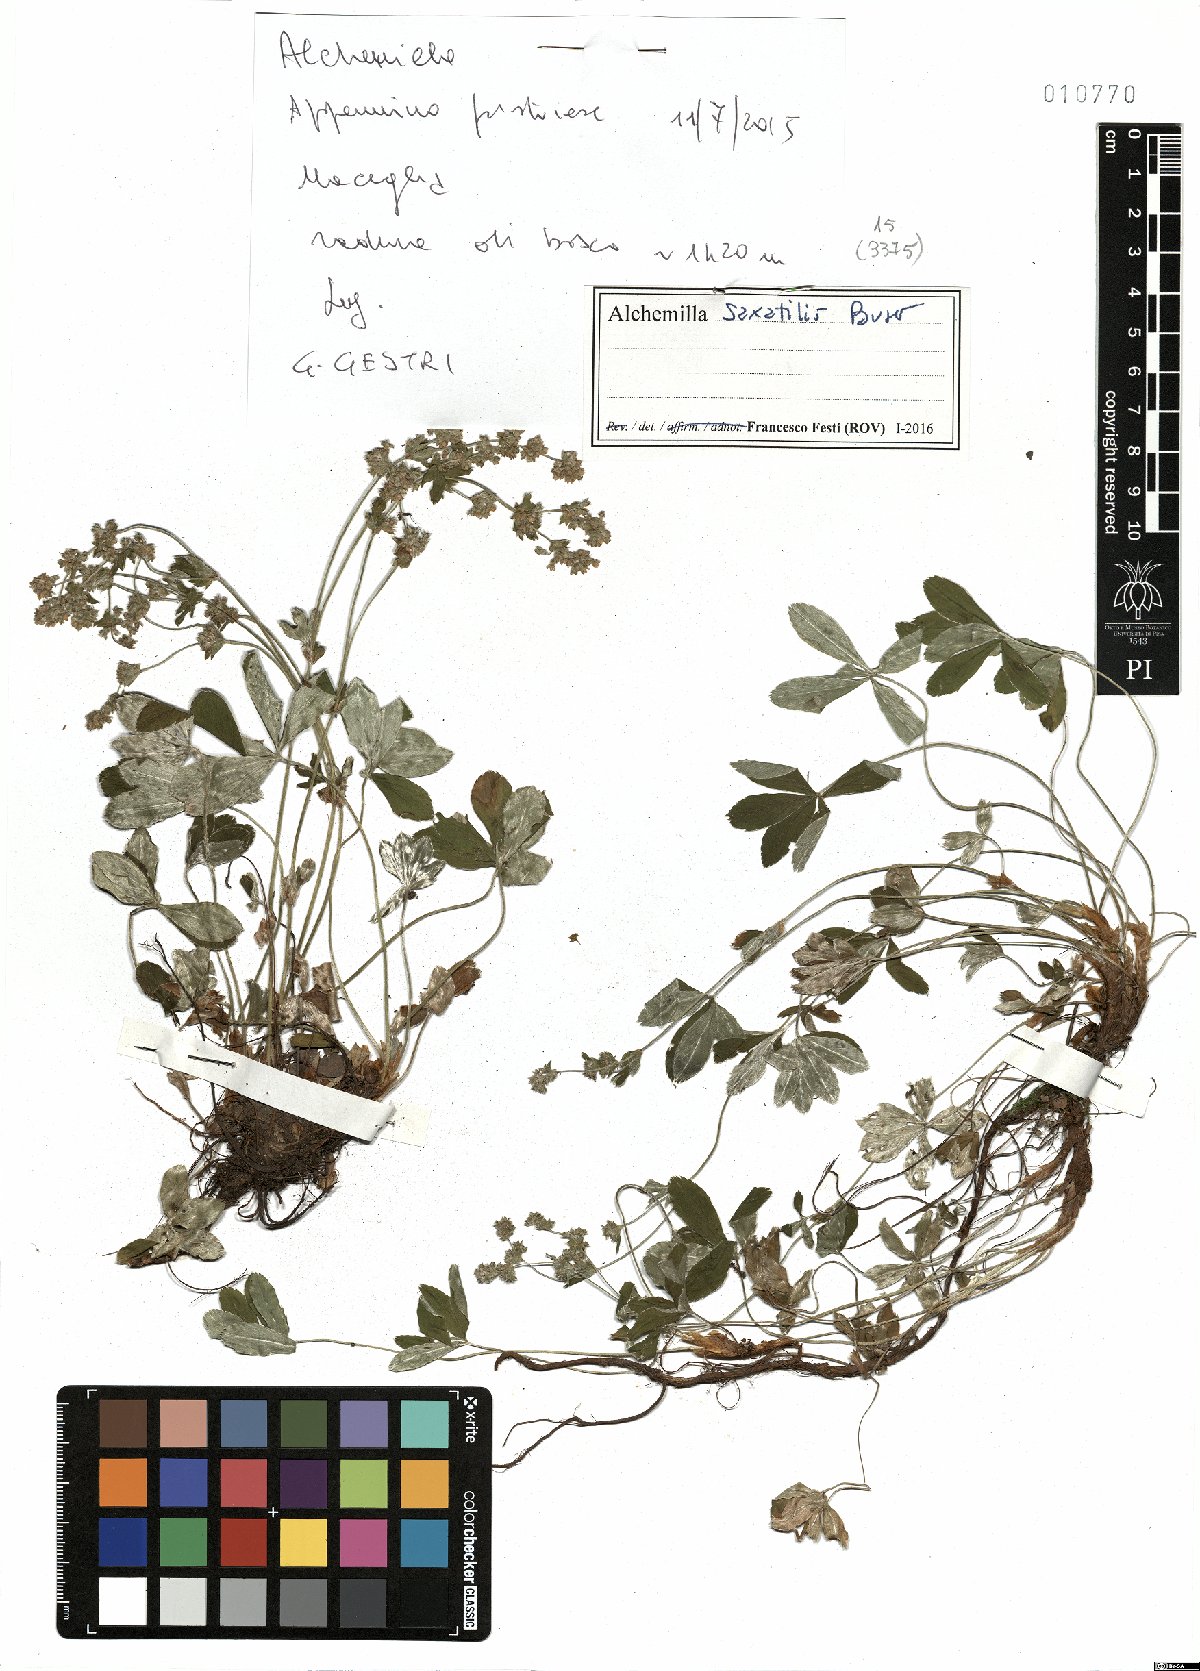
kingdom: Plantae
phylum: Tracheophyta
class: Magnoliopsida
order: Rosales
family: Rosaceae
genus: Alchemilla
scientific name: Alchemilla saxatilis
